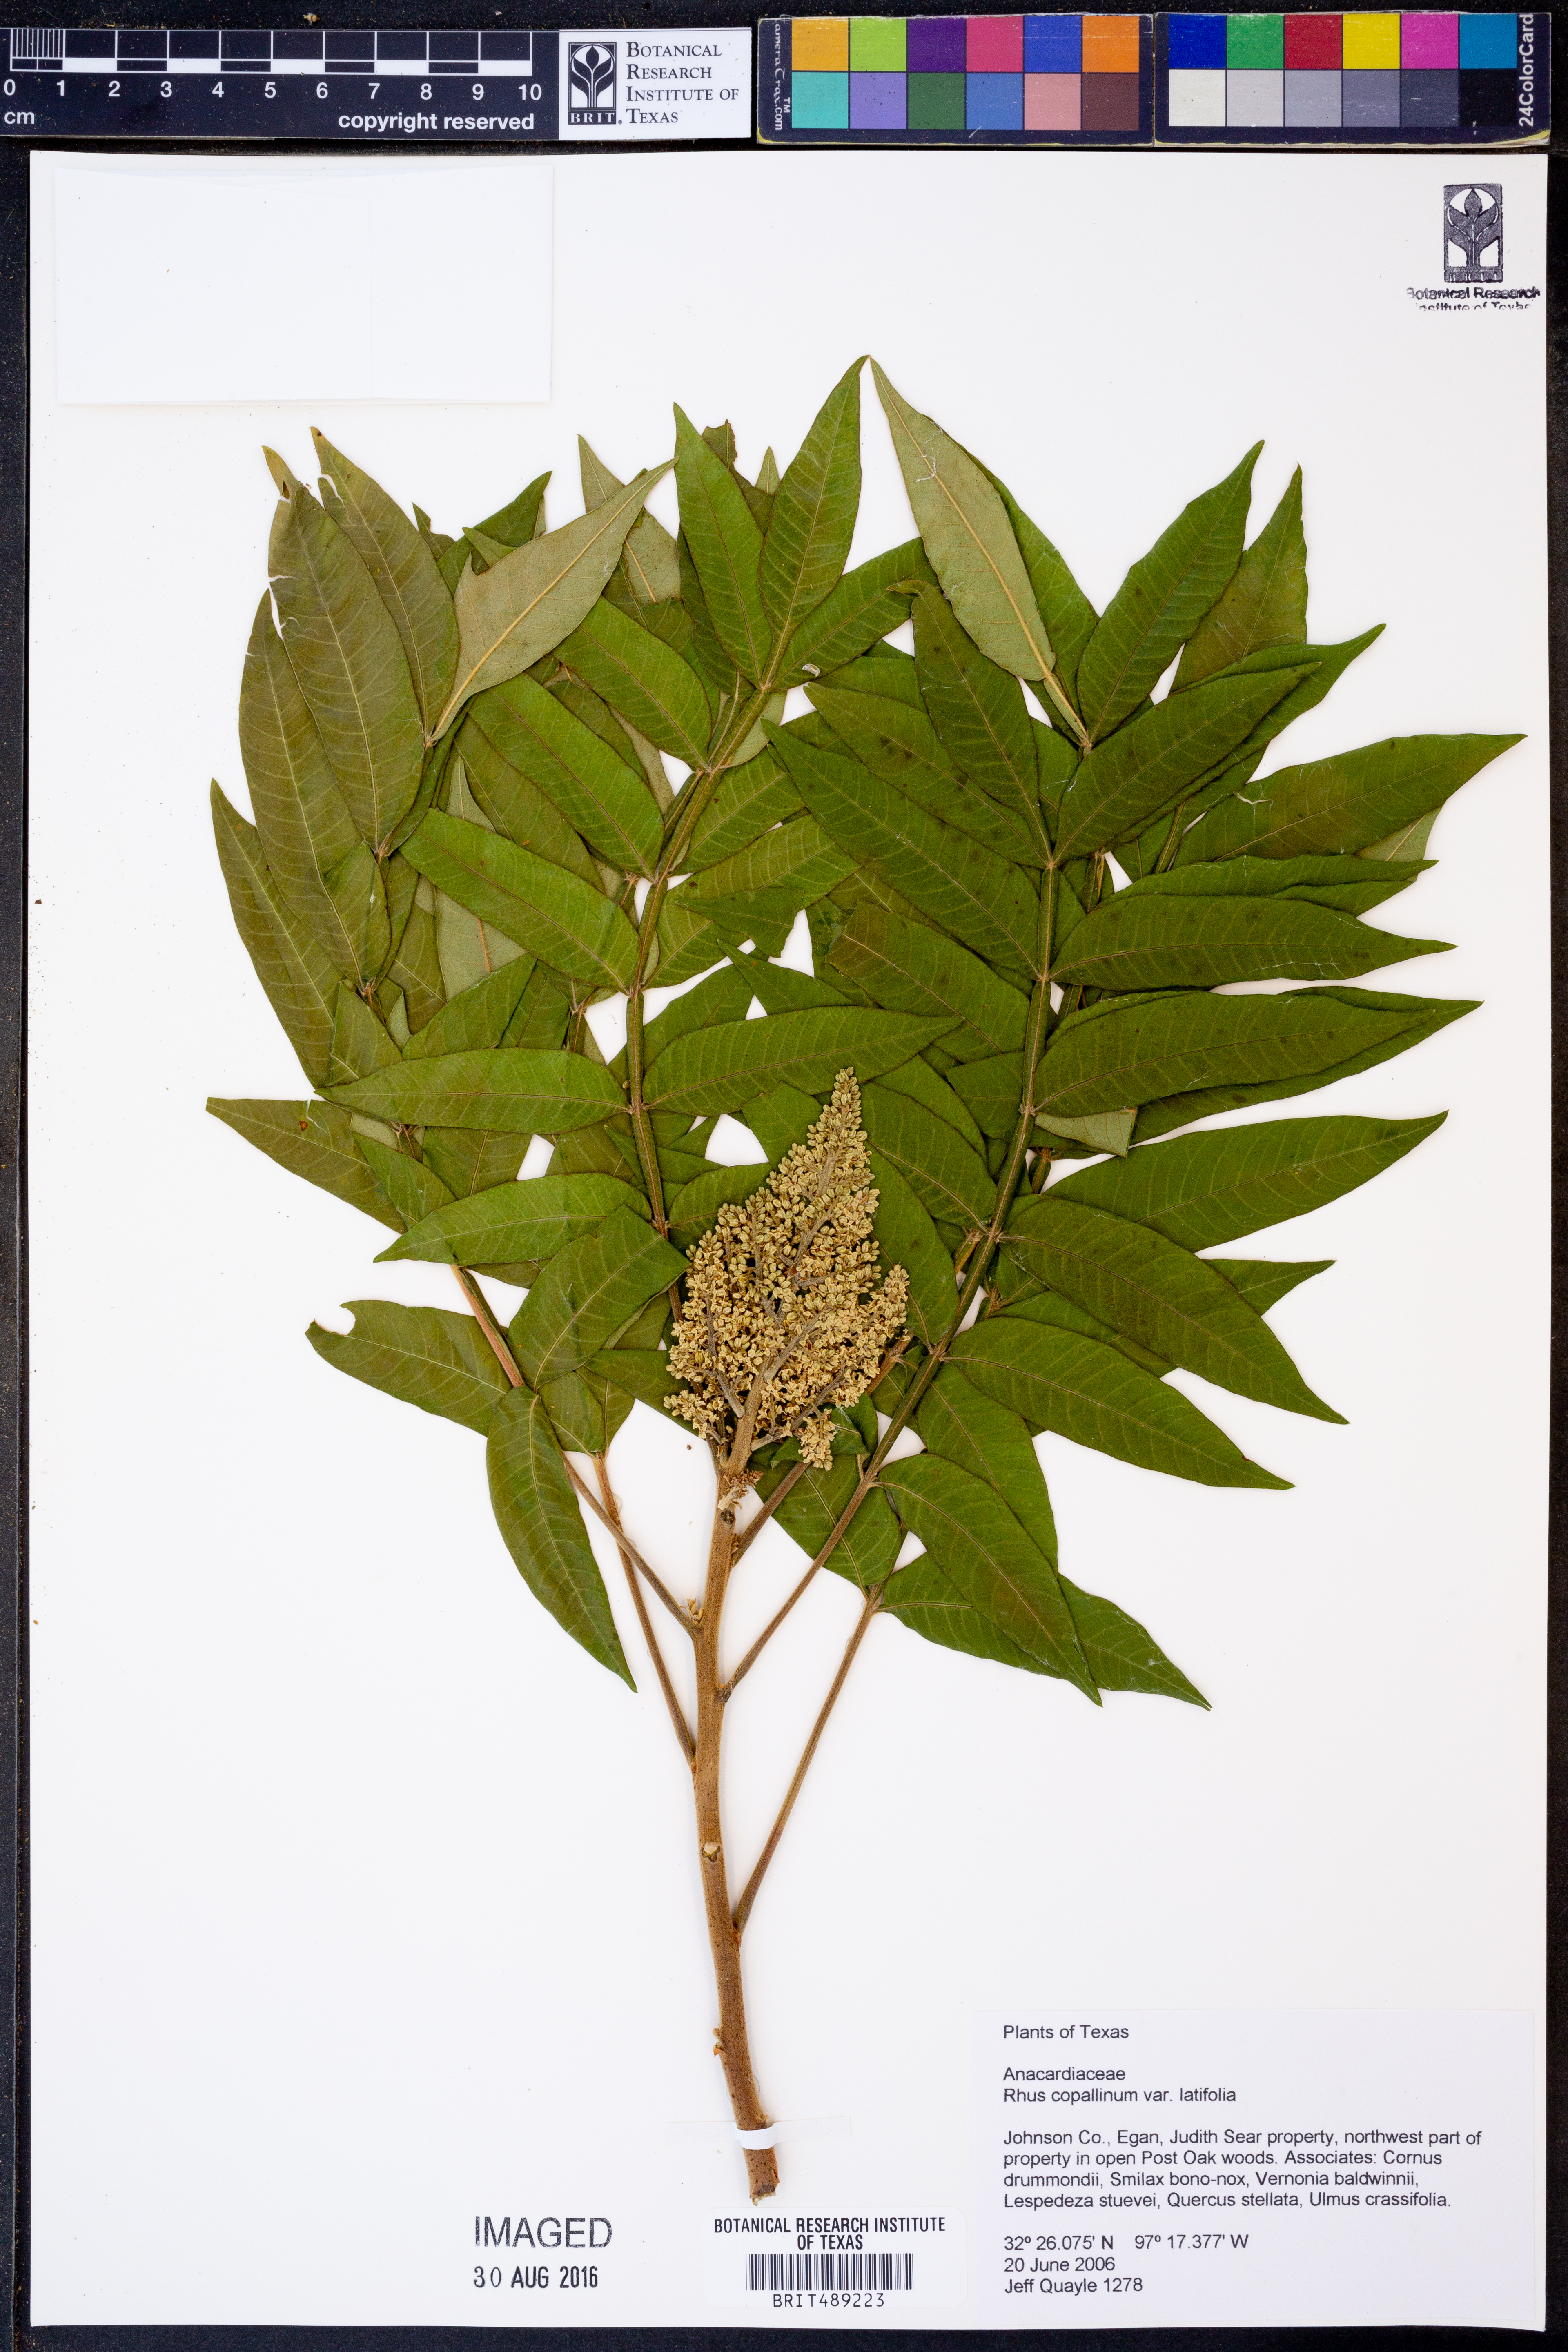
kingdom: Plantae
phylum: Tracheophyta
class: Magnoliopsida
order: Sapindales
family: Anacardiaceae
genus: Rhus
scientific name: Rhus copallina
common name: Shining sumac
